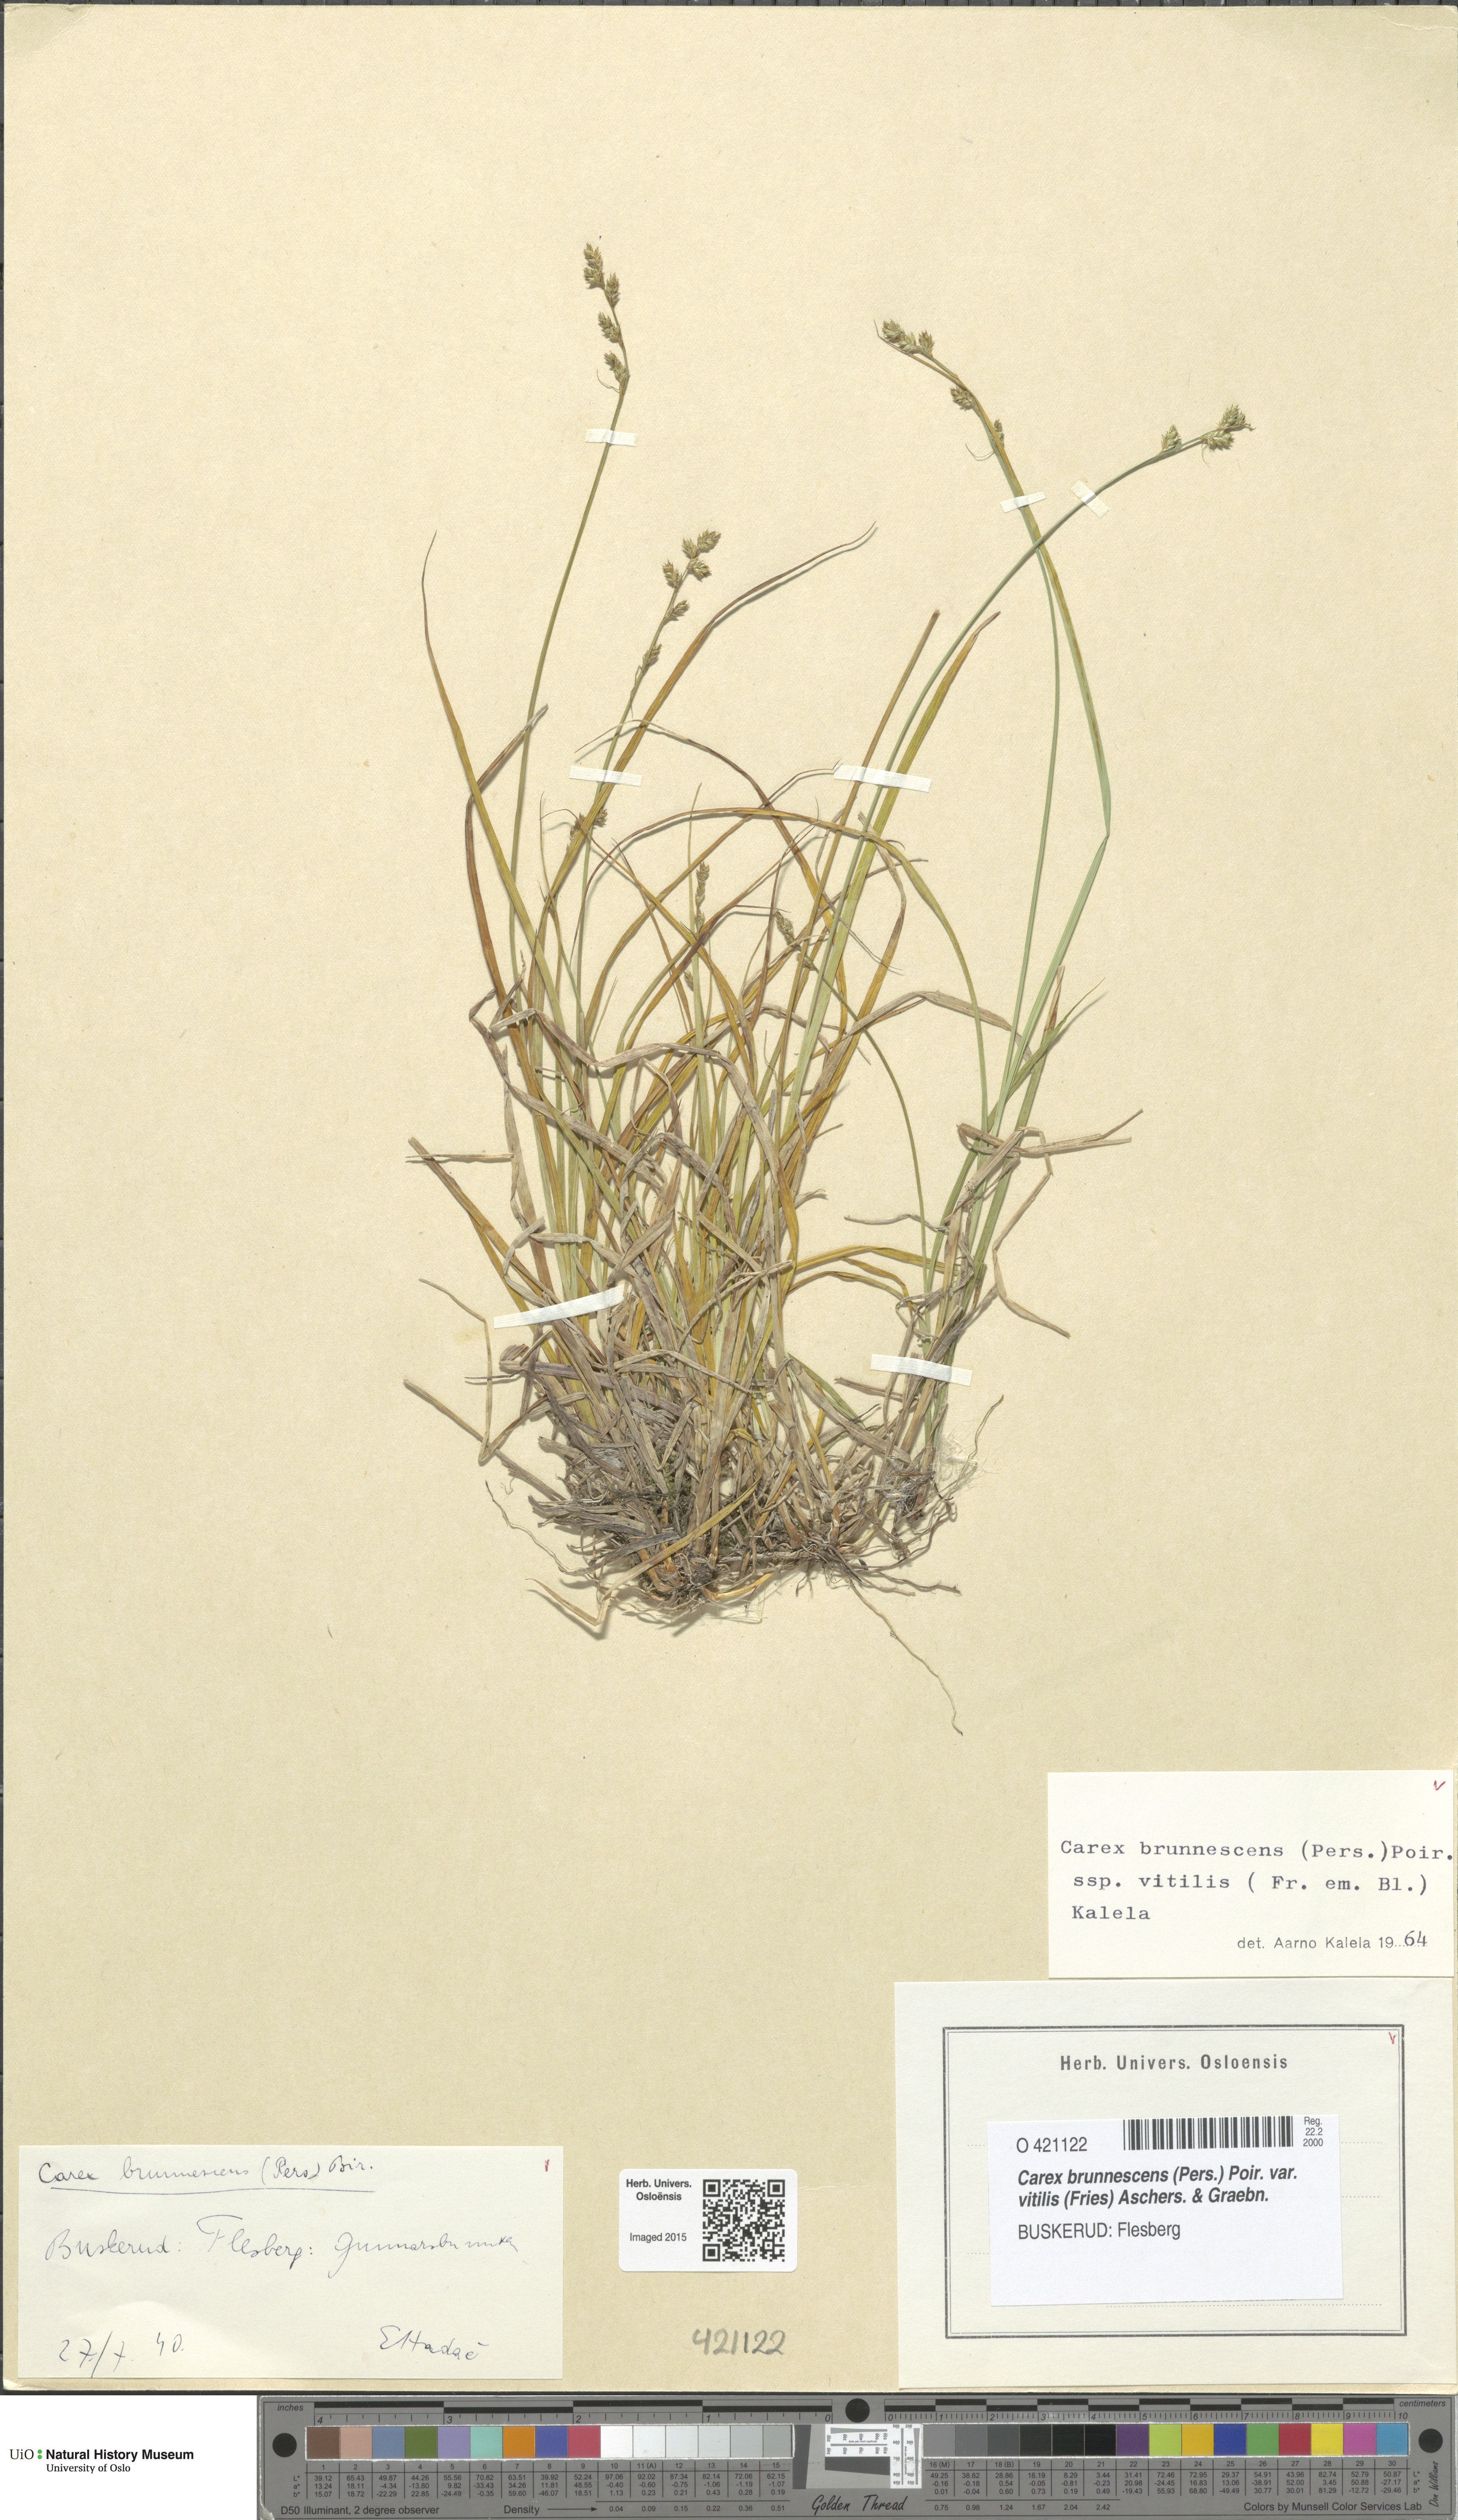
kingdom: Plantae
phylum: Tracheophyta
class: Liliopsida
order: Poales
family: Cyperaceae
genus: Carex
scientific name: Carex brunnescens
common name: Brown sedge
